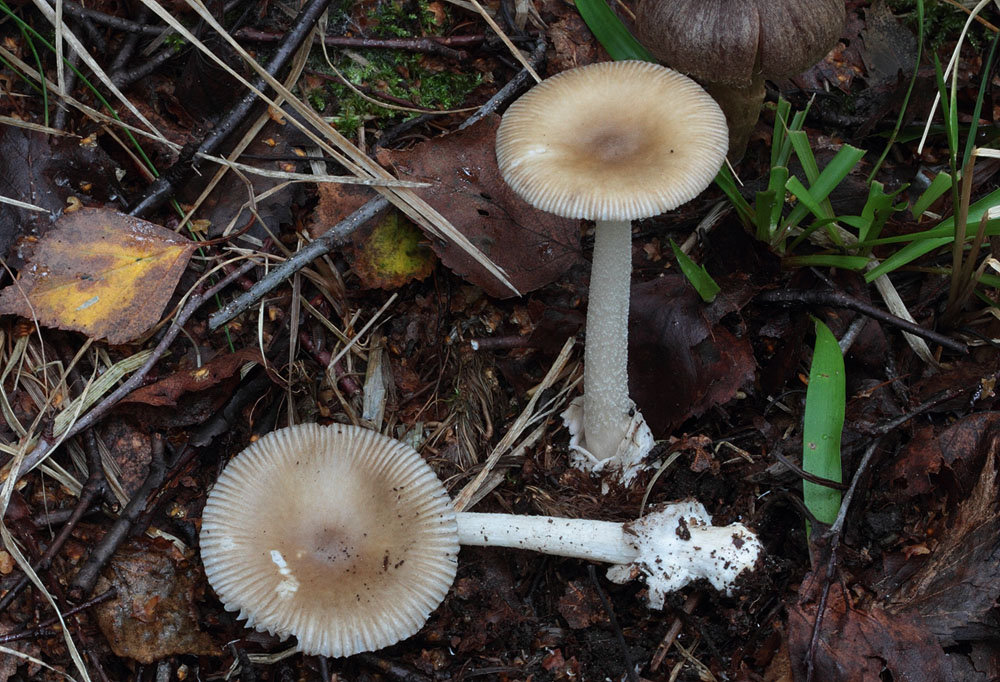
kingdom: Fungi
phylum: Basidiomycota
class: Agaricomycetes
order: Agaricales
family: Amanitaceae
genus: Amanita
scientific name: Amanita olivaceogrisea
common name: olivengrå kam-fluesvamp
